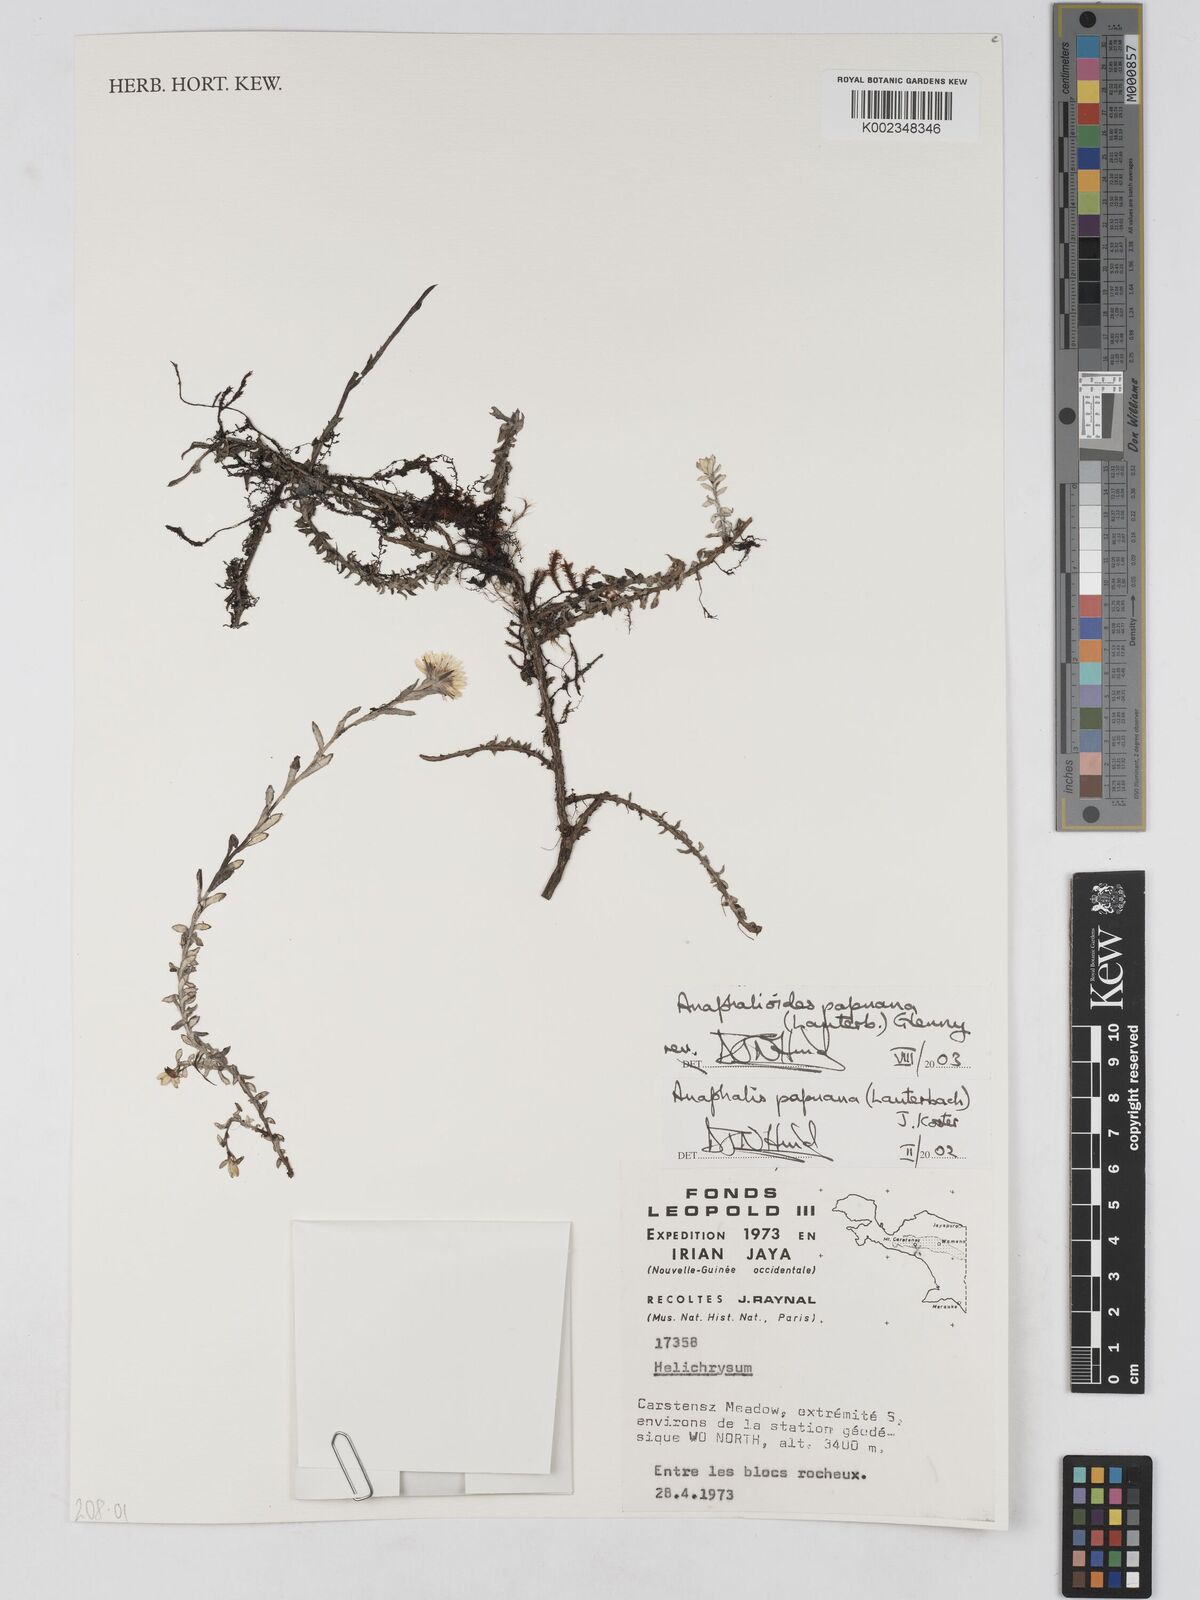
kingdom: Plantae
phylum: Tracheophyta
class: Magnoliopsida
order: Asterales
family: Asteraceae
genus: Anaphalioides
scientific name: Anaphalioides papuana
